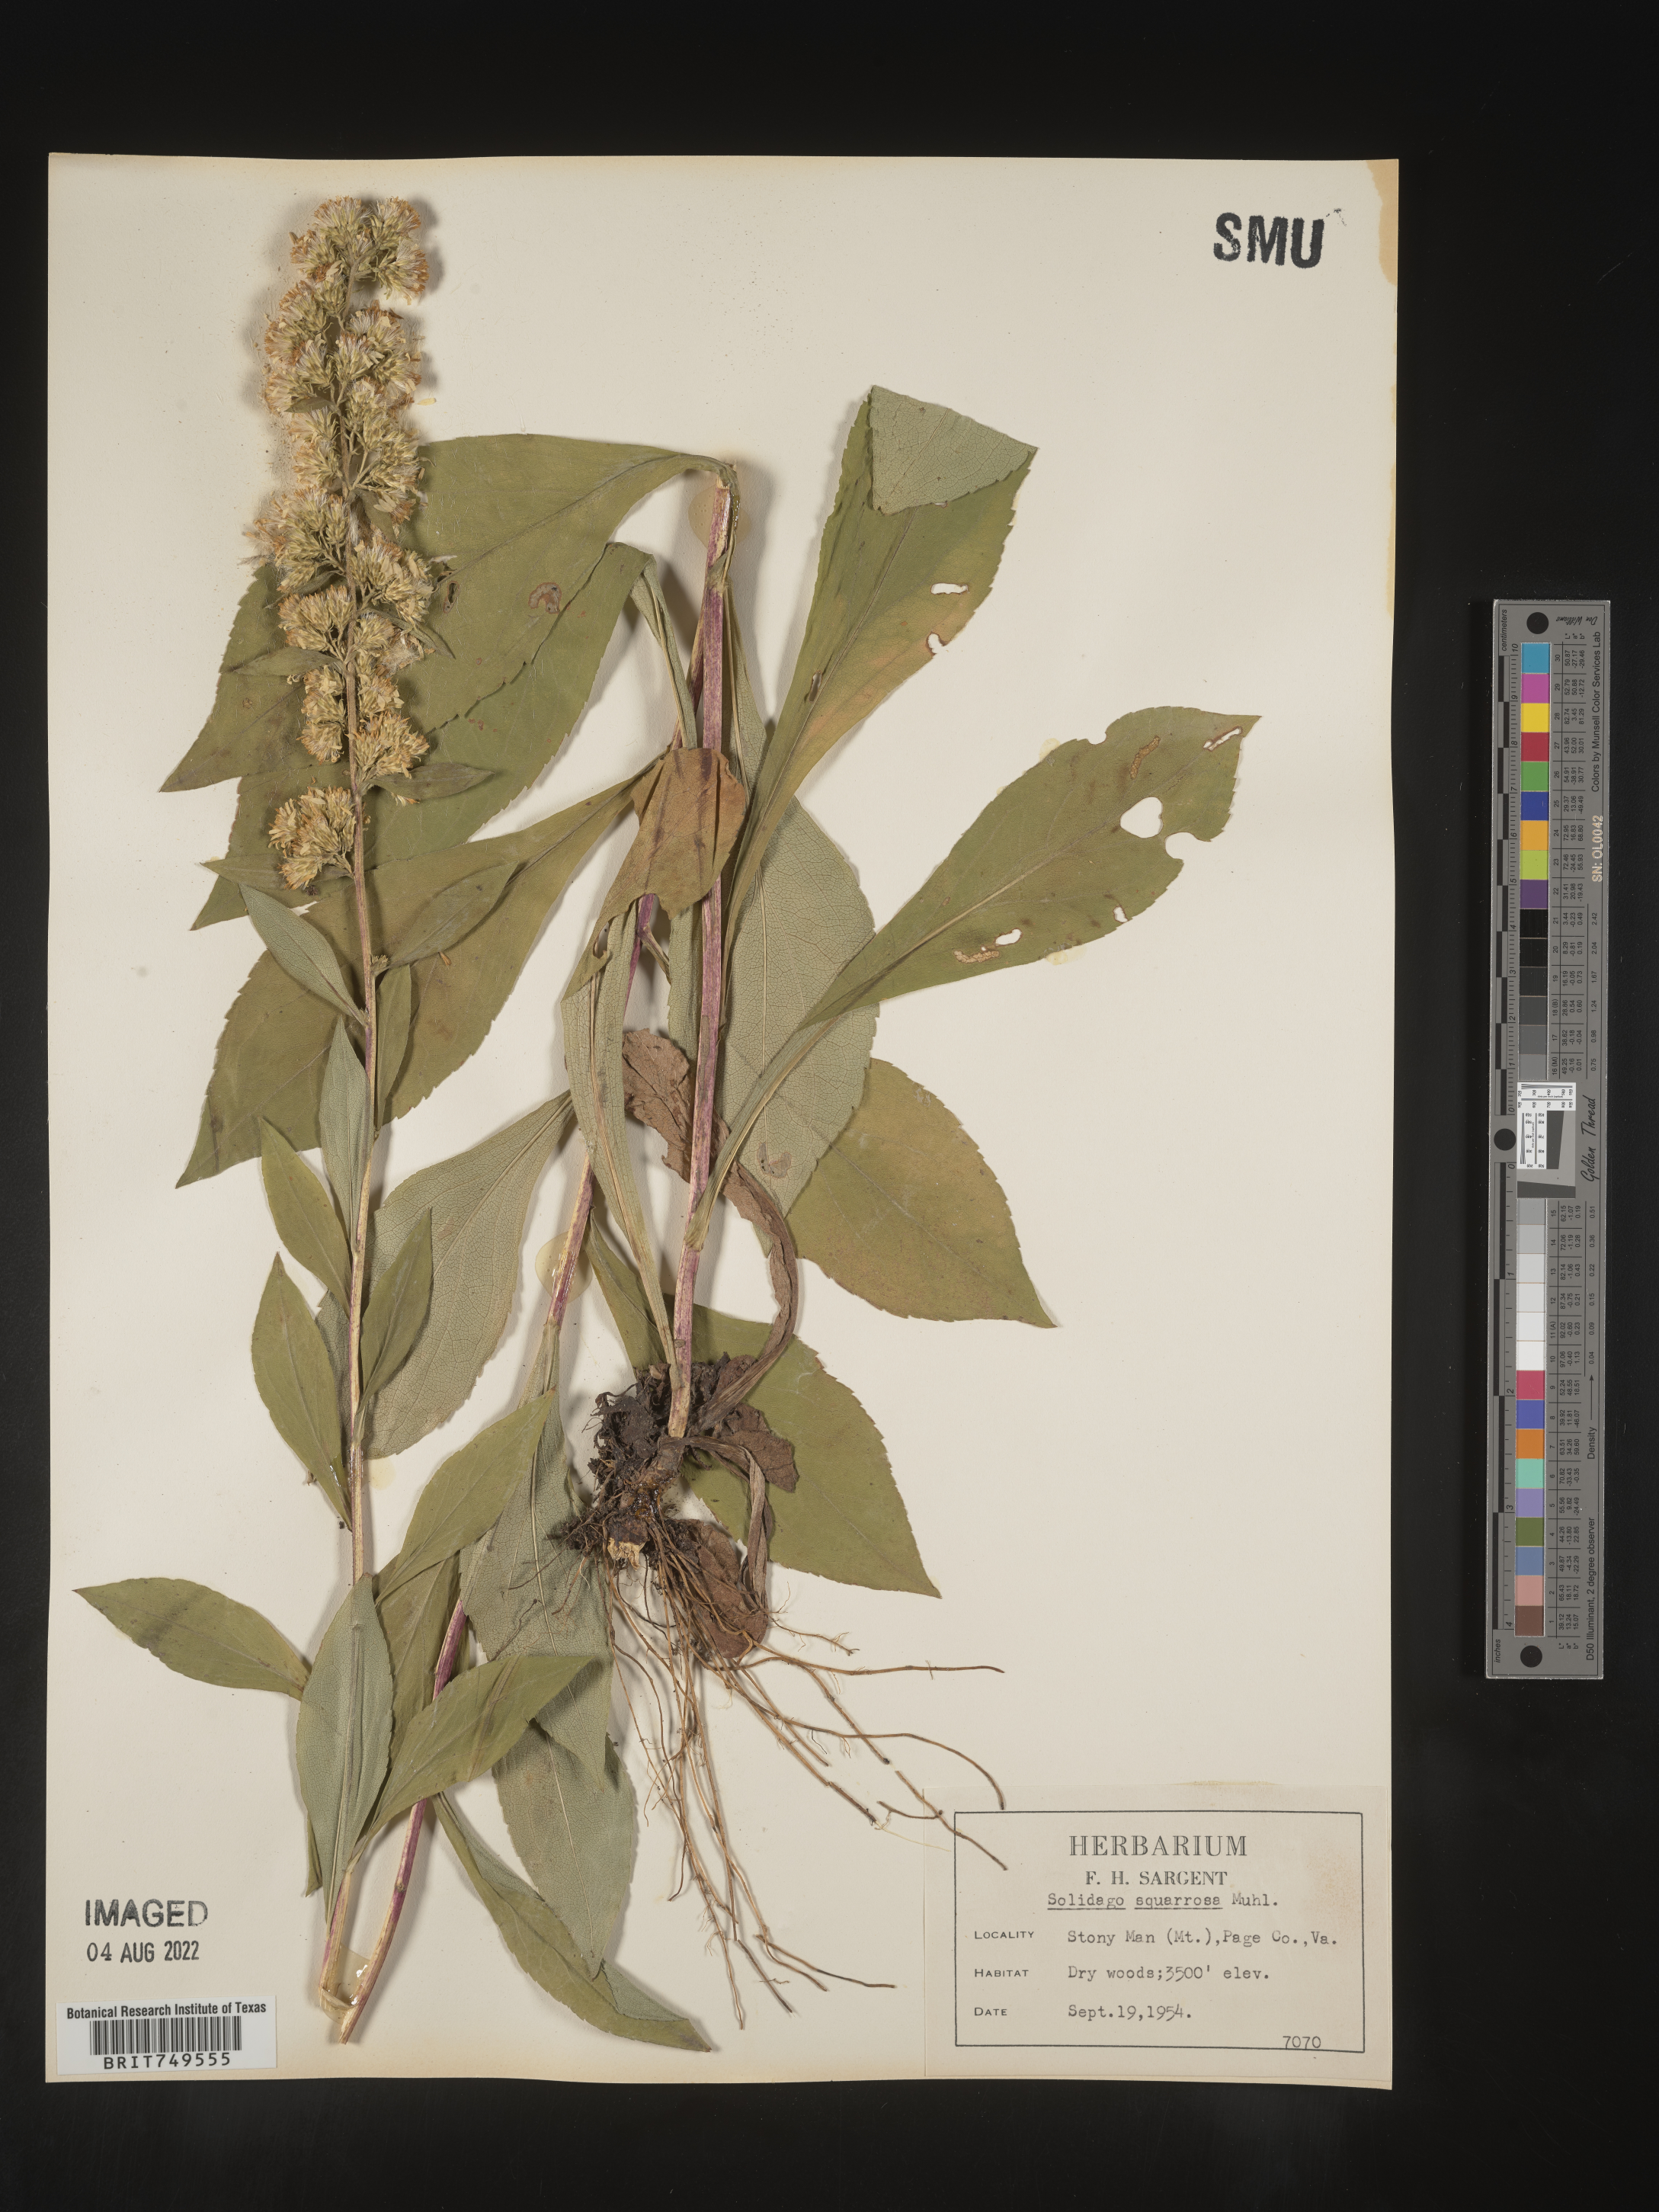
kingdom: Plantae
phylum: Tracheophyta
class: Magnoliopsida
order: Asterales
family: Asteraceae
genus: Solidago
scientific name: Solidago squarrosa
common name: Stout goldenrod
